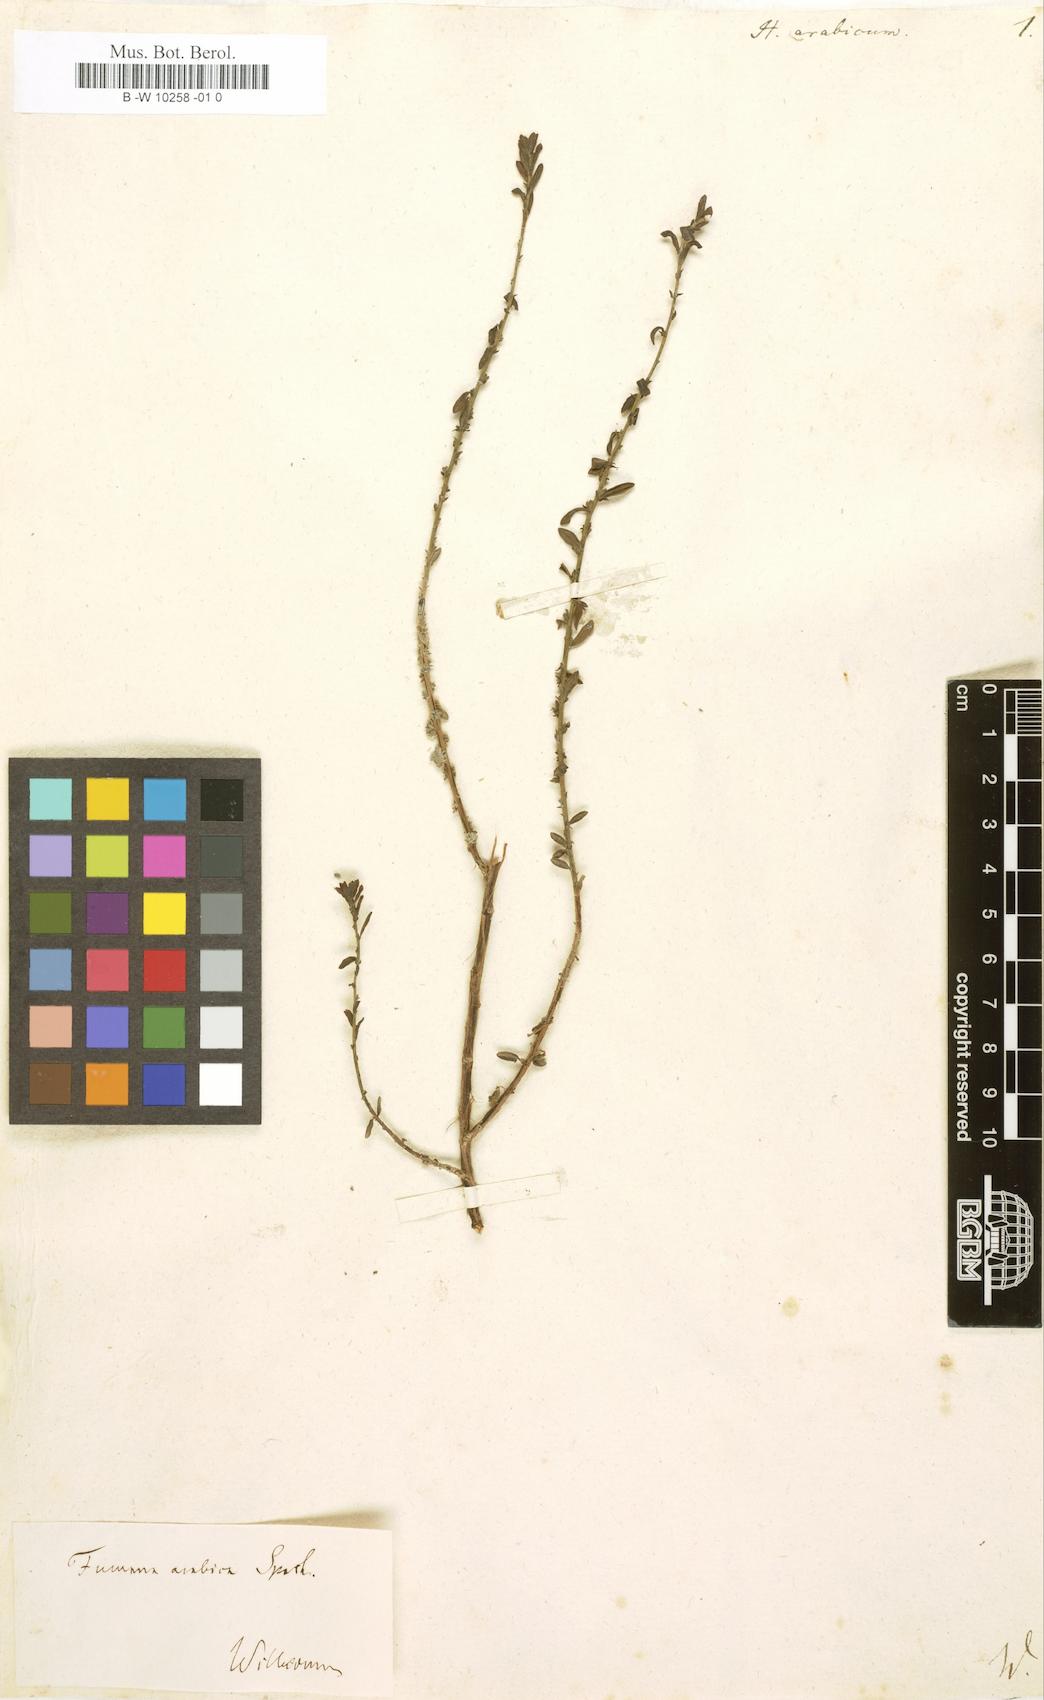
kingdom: Plantae
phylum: Tracheophyta
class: Magnoliopsida
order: Malvales
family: Cistaceae
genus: Fumana
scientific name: Fumana arabica
